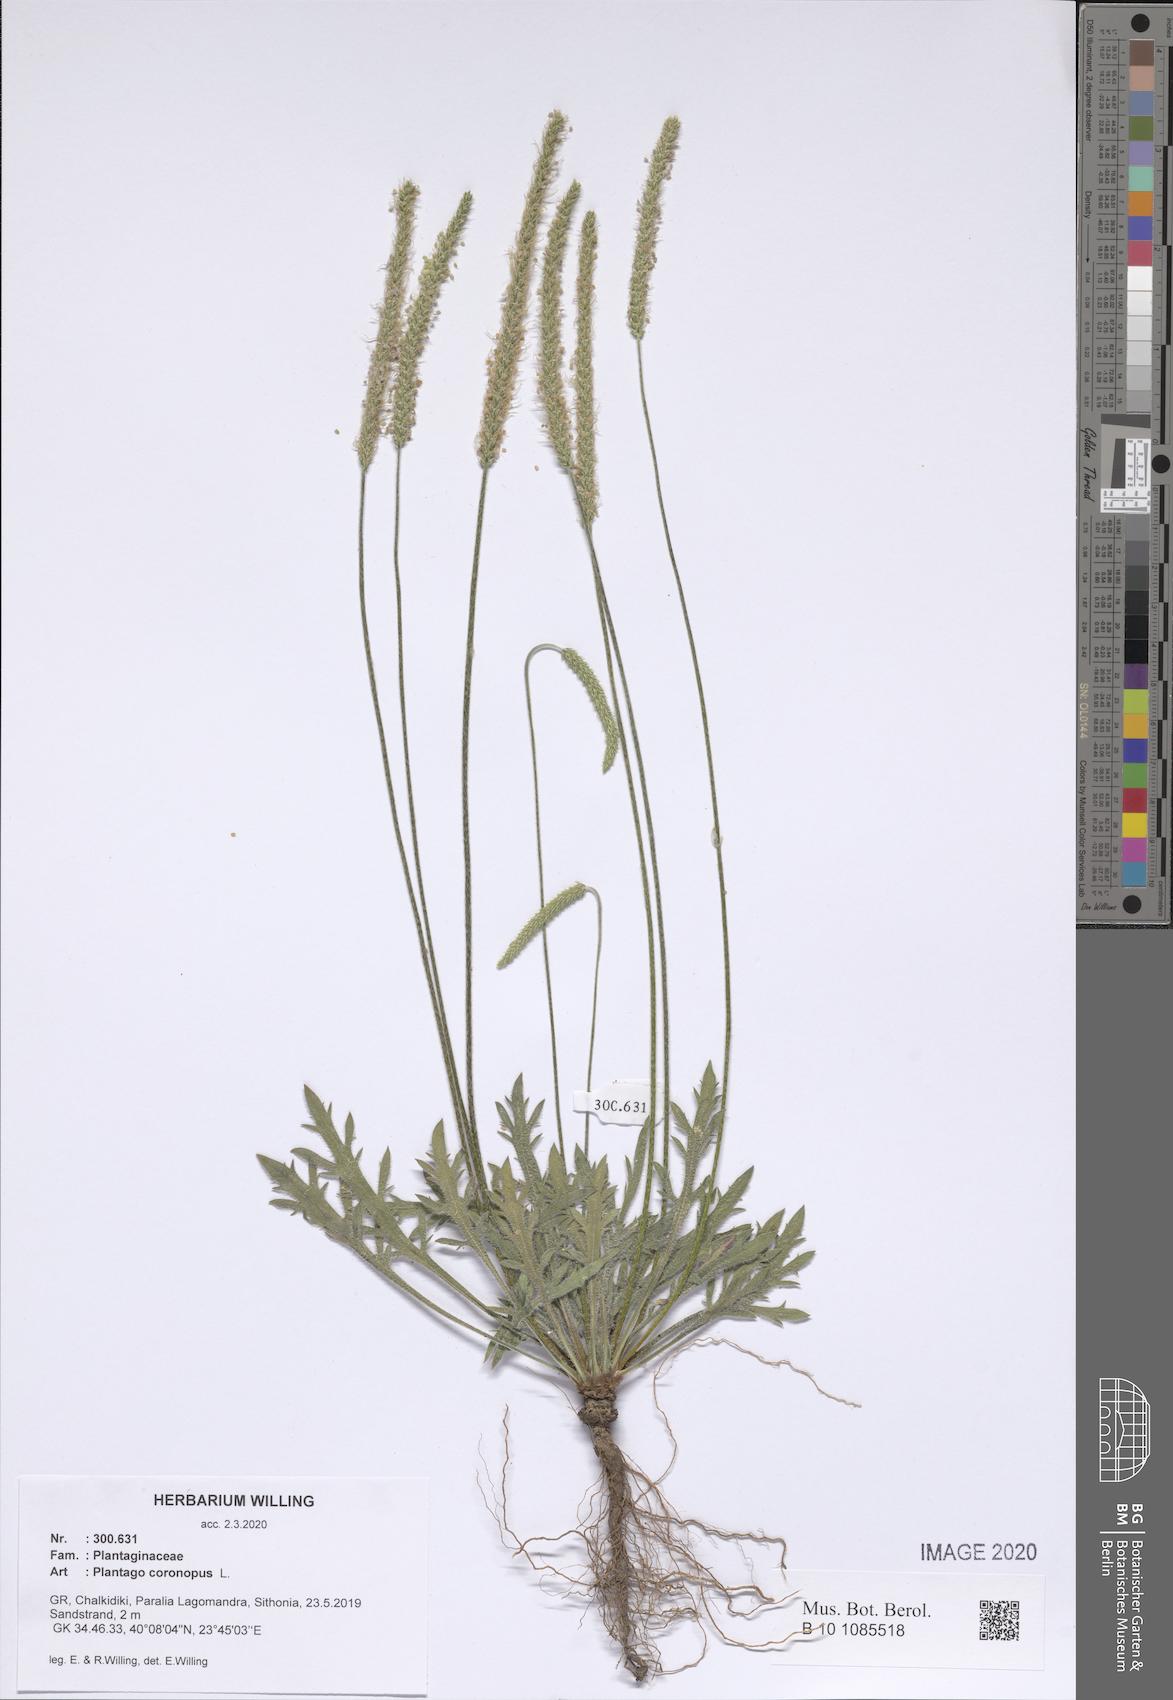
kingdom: Plantae
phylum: Tracheophyta
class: Magnoliopsida
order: Lamiales
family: Plantaginaceae
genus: Plantago
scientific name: Plantago coronopus
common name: Buck's-horn plantain
